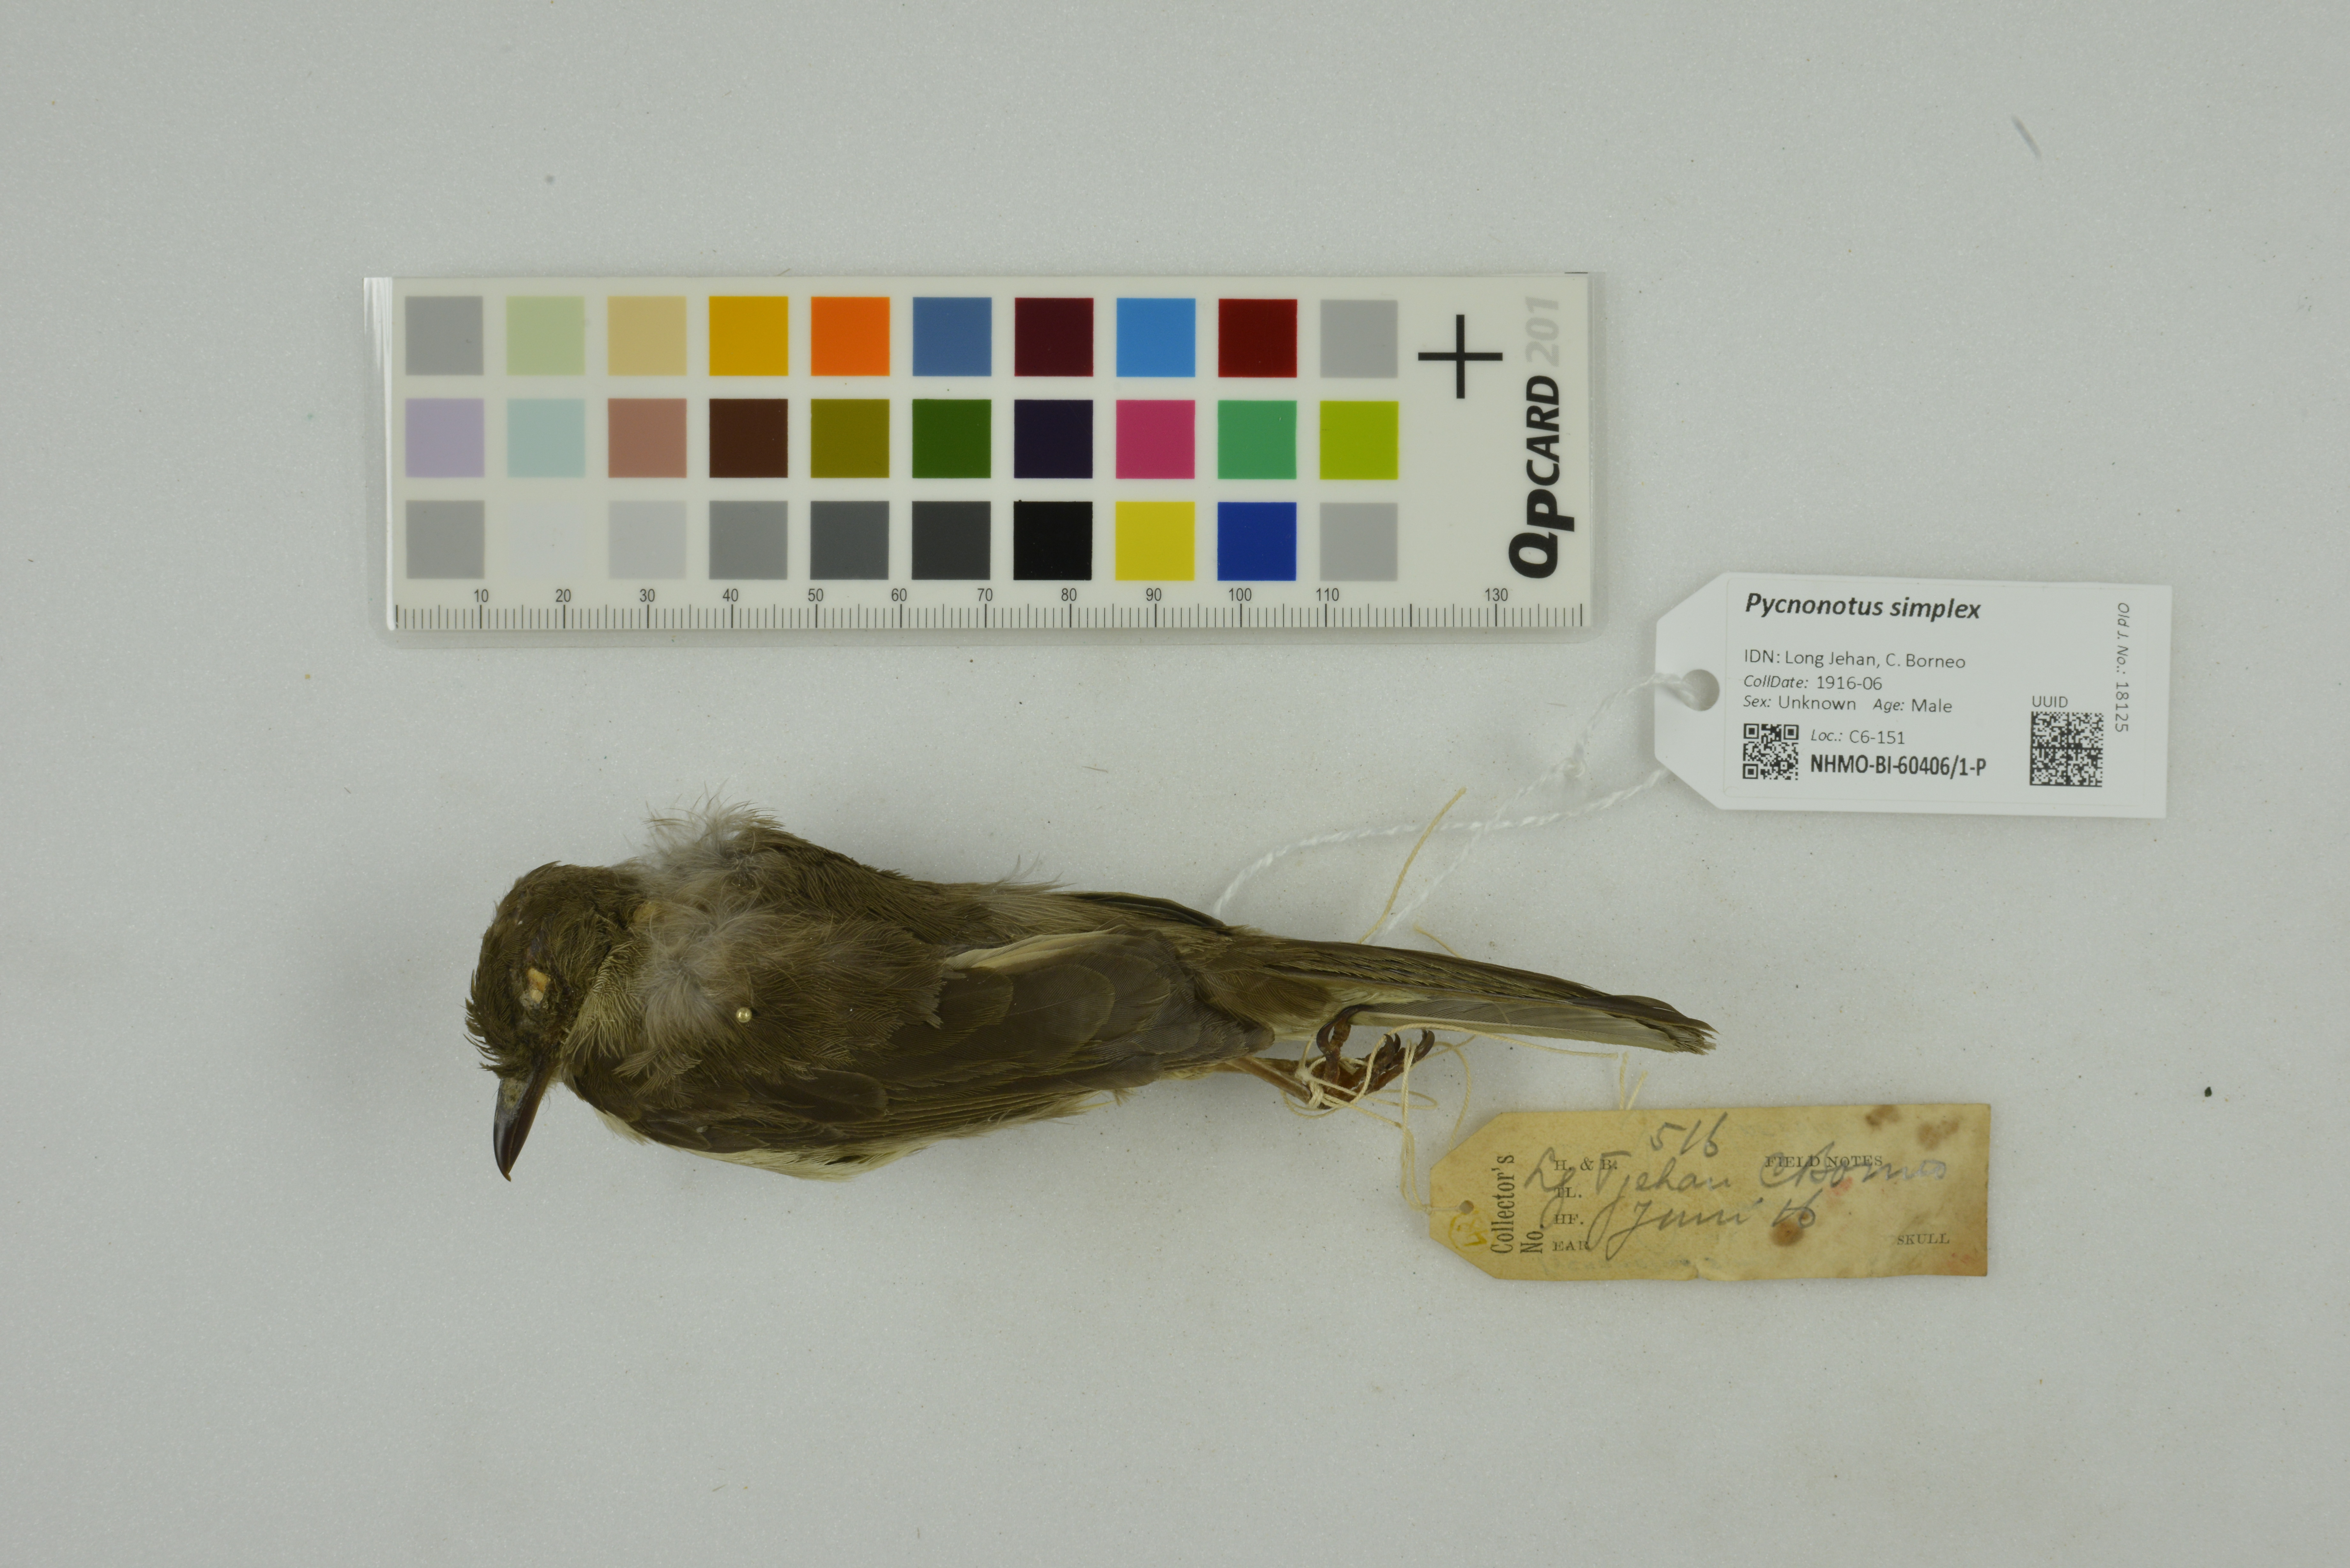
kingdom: Animalia
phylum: Chordata
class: Aves
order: Passeriformes
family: Pycnonotidae
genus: Pycnonotus
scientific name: Pycnonotus simplex
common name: Cream-vented bulbul
